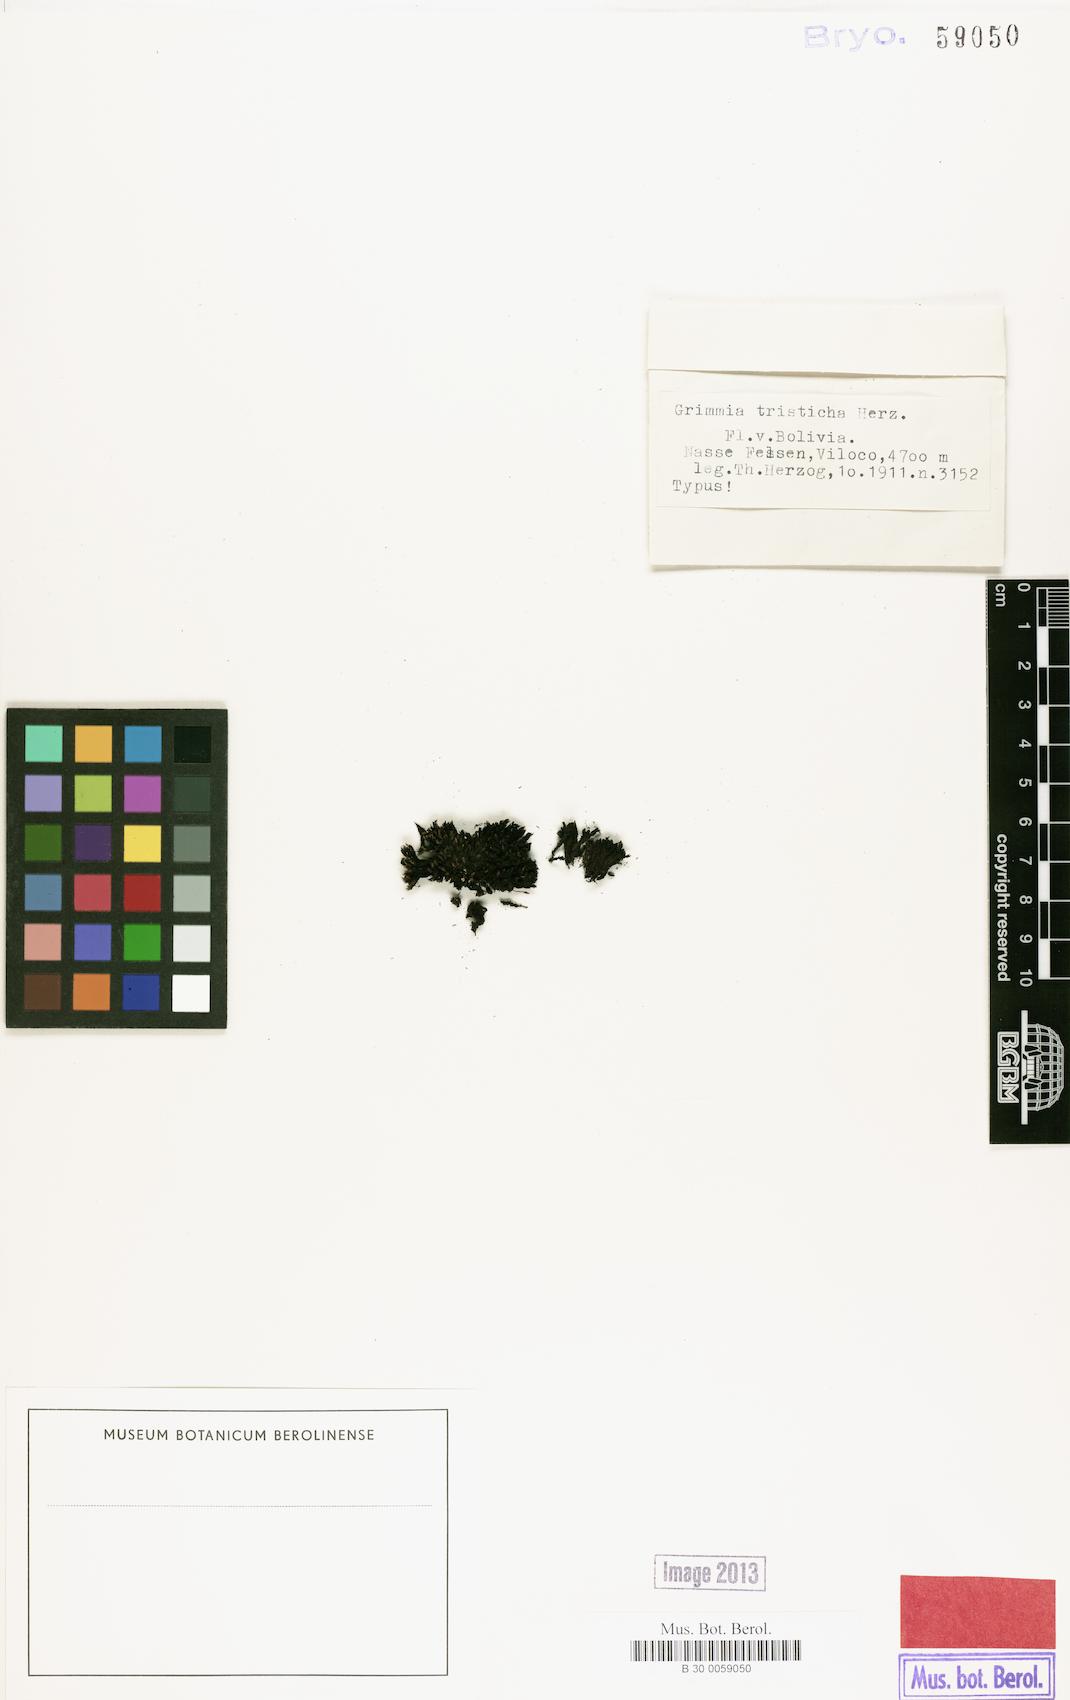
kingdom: Plantae
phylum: Bryophyta
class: Bryopsida
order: Grimmiales
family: Seligeriaceae
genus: Seligeria
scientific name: Seligeria trifaria
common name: Trifid rock-bristle
